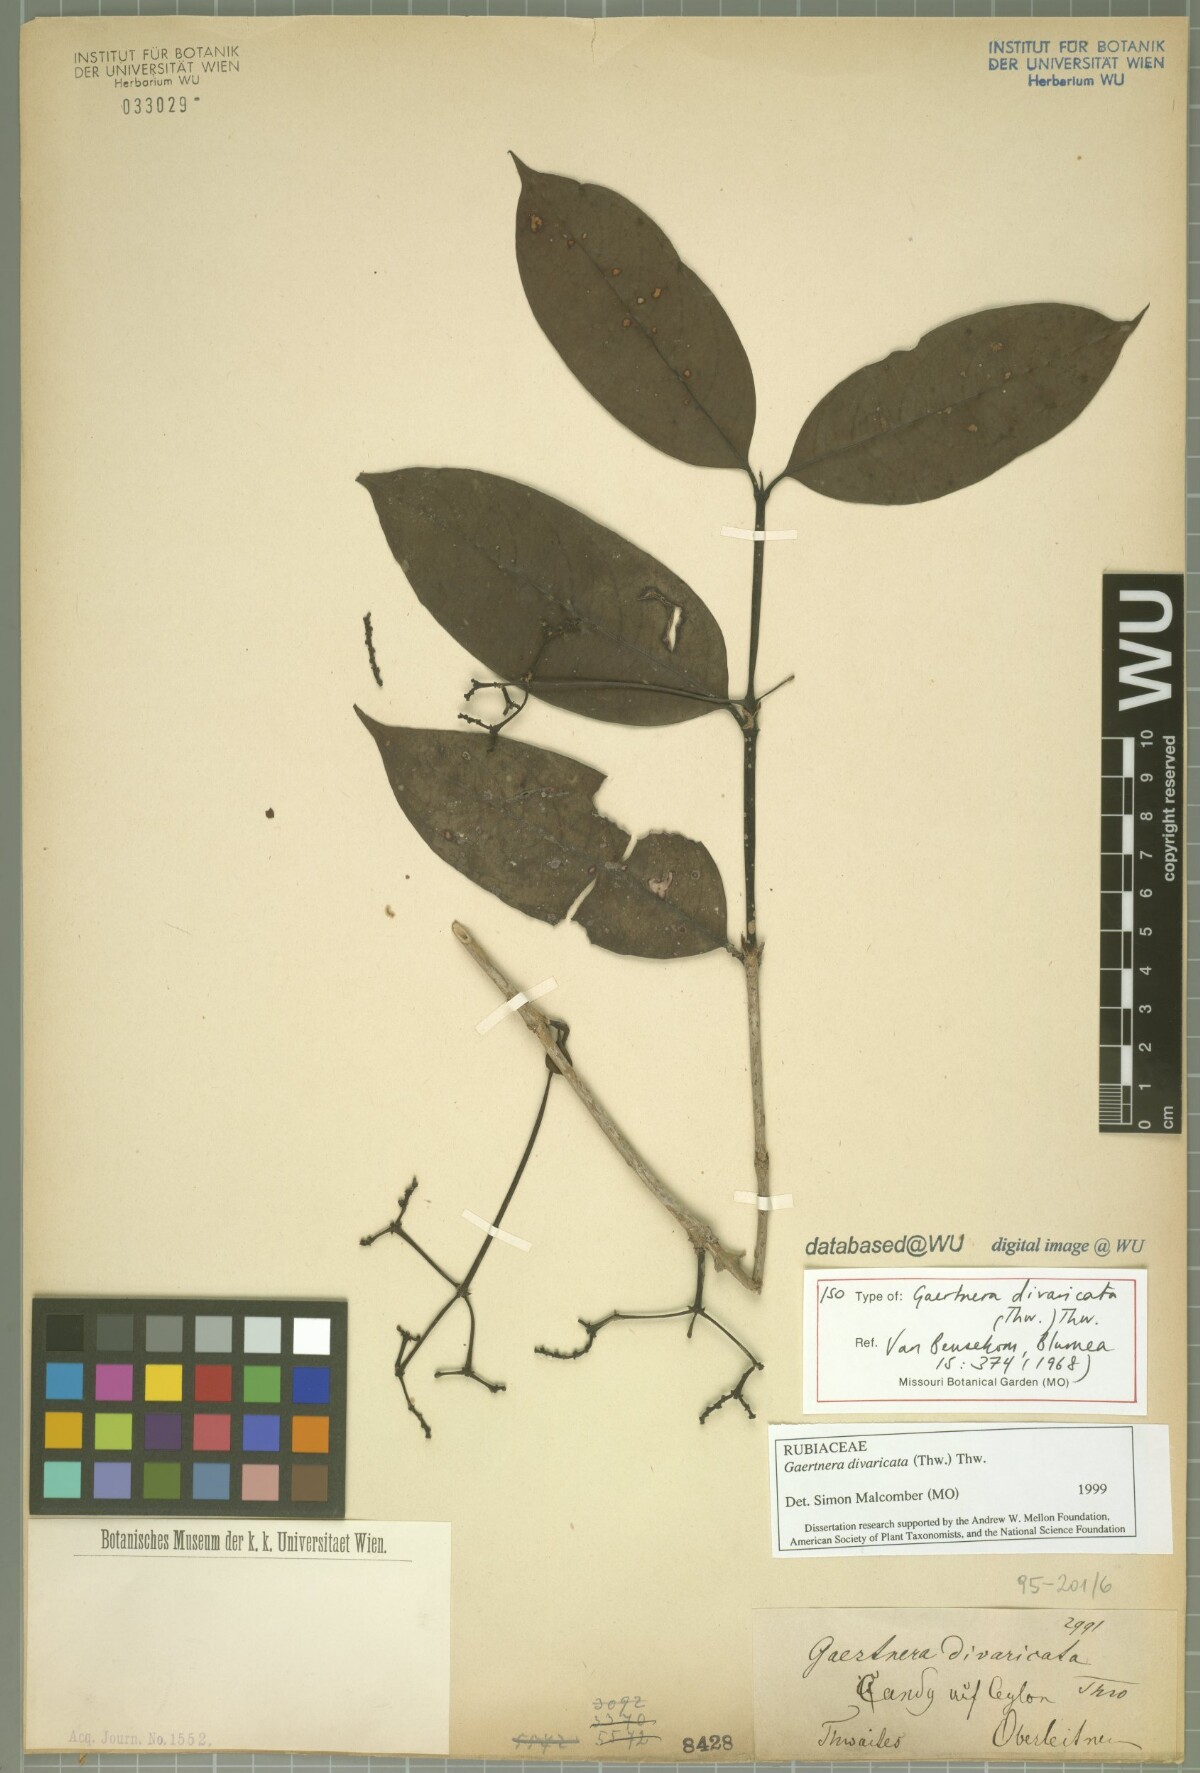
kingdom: Plantae
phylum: Tracheophyta
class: Magnoliopsida
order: Gentianales
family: Rubiaceae
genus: Gaertnera
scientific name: Gaertnera divaricata
